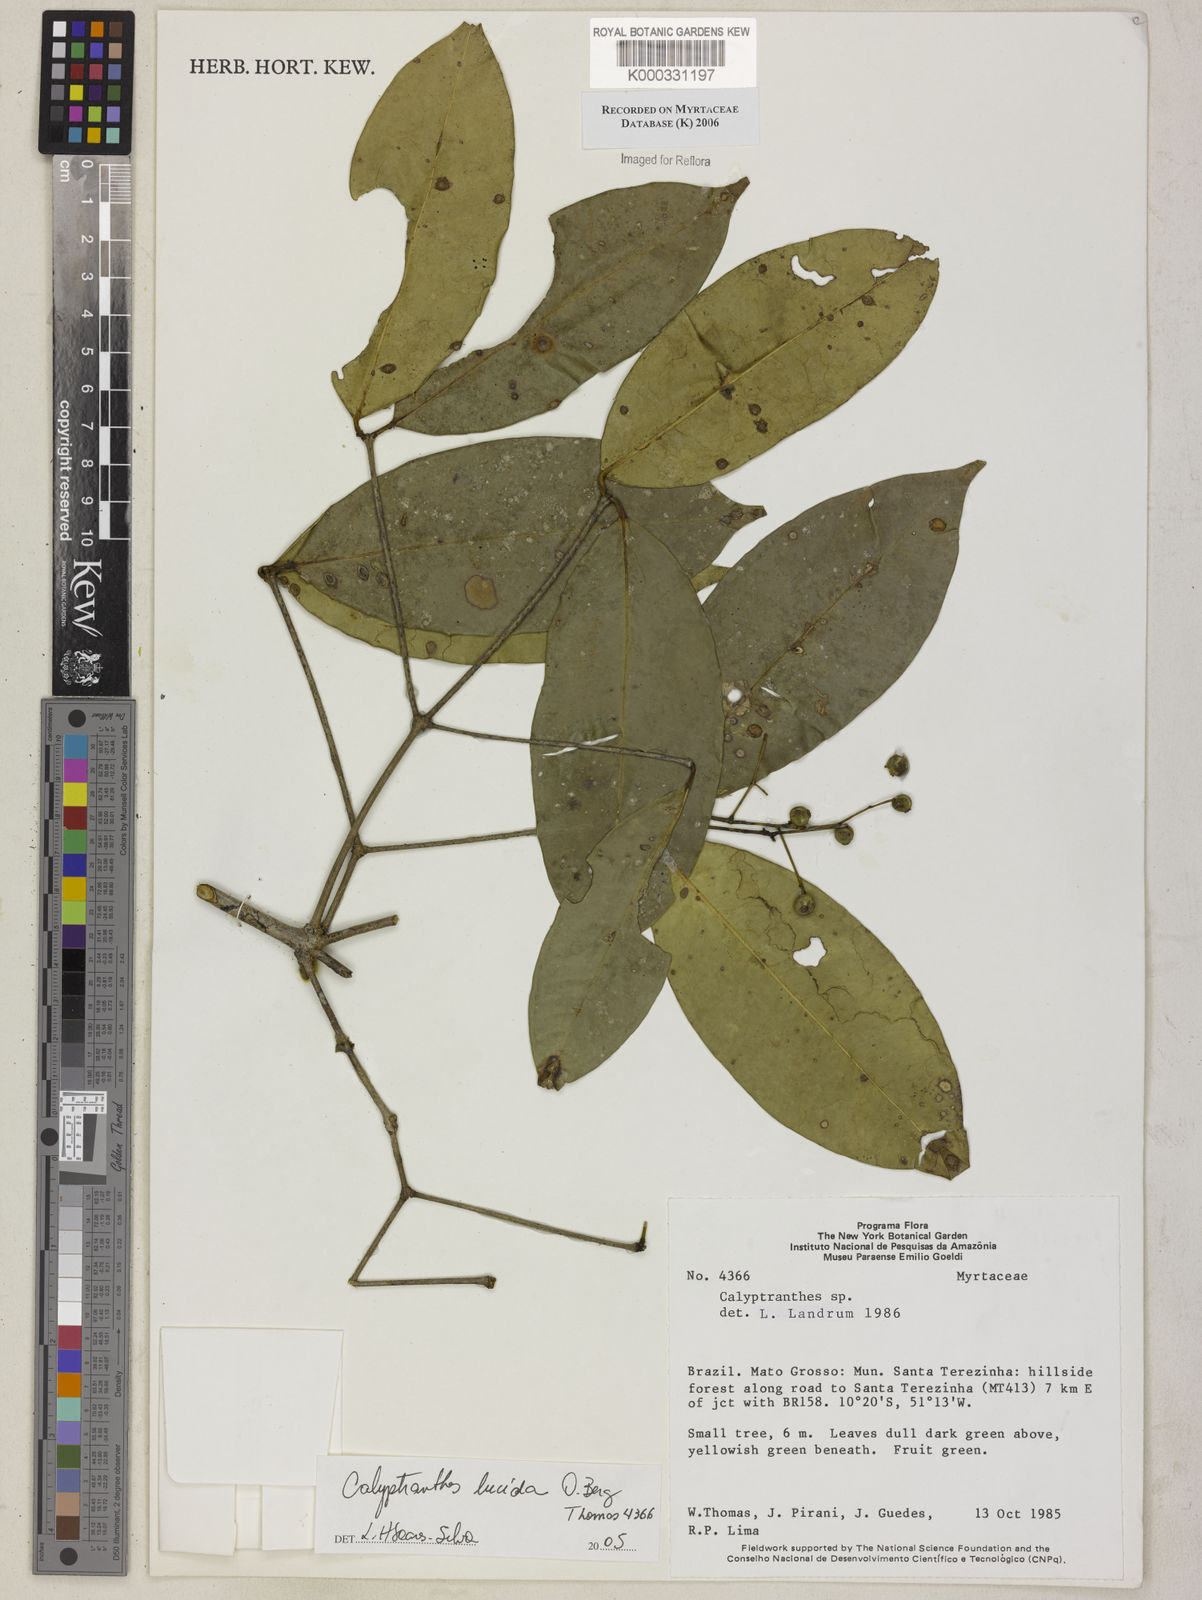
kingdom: Plantae
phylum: Tracheophyta
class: Magnoliopsida
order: Myrtales
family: Myrtaceae
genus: Myrcia
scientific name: Myrcia neolucida
